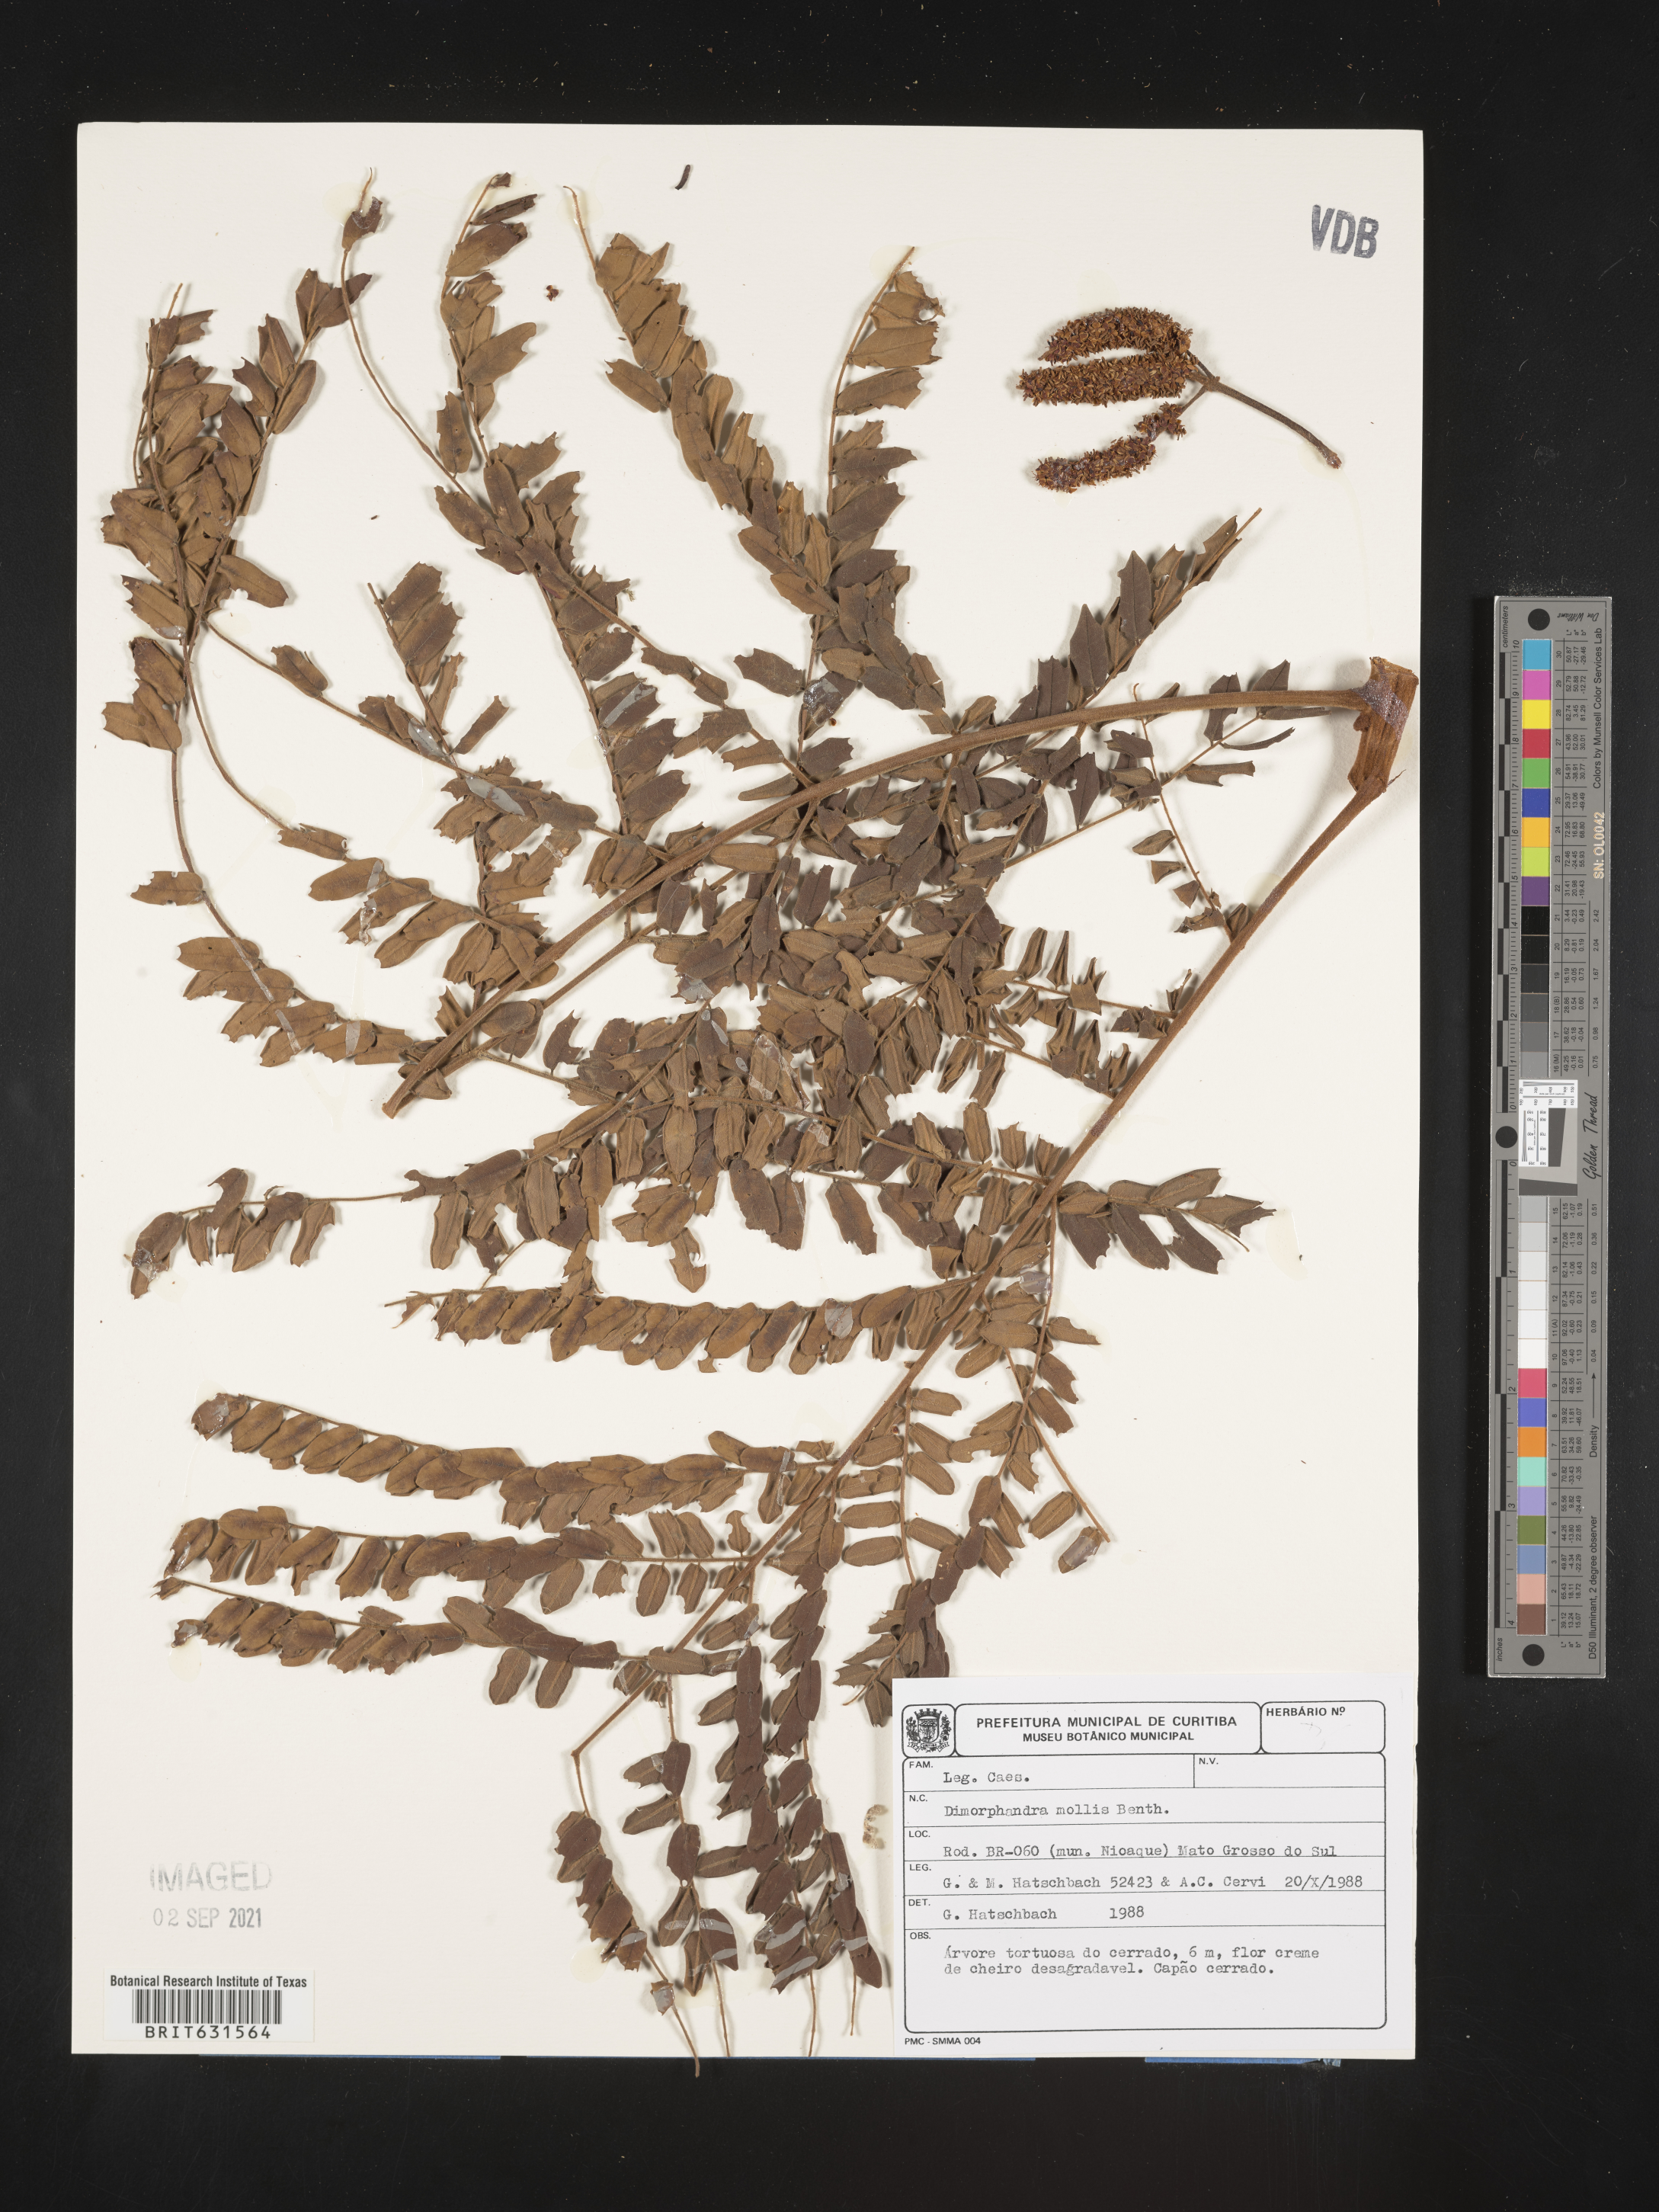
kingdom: Plantae
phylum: Tracheophyta
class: Magnoliopsida
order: Fabales
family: Fabaceae
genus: Dimorphandra
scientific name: Dimorphandra mollis
